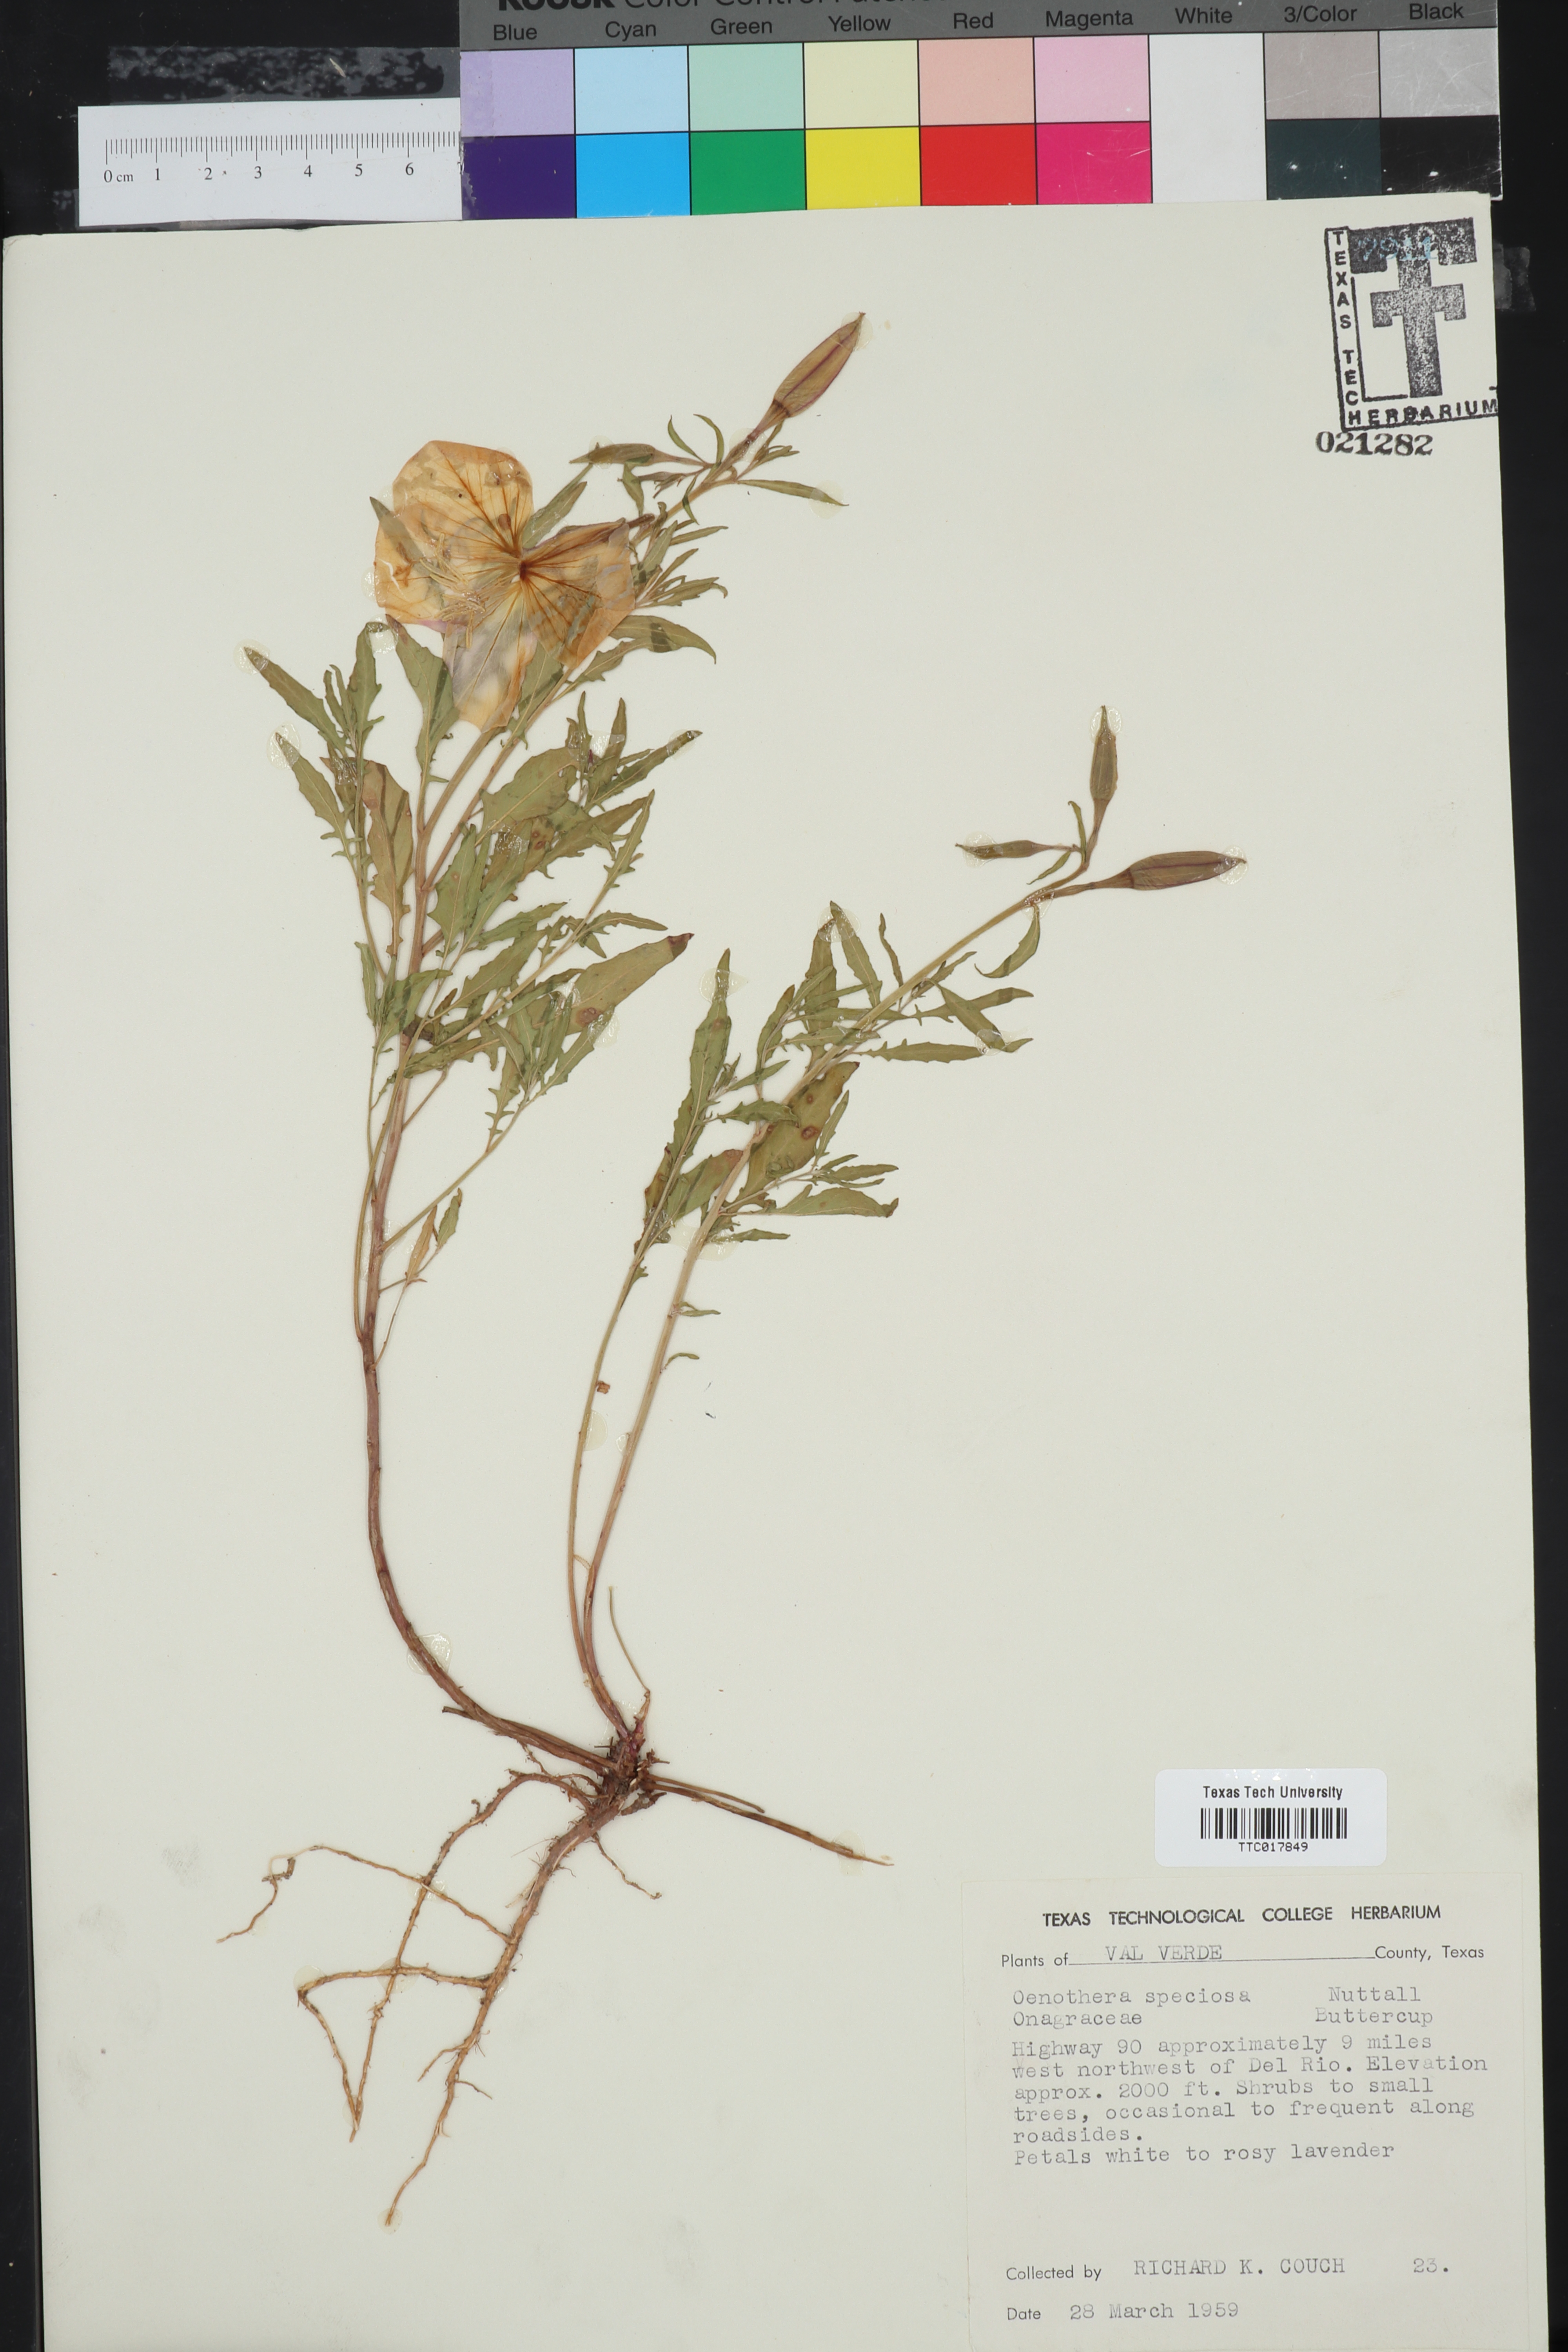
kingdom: Plantae
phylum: Tracheophyta
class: Magnoliopsida
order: Myrtales
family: Onagraceae
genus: Oenothera
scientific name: Oenothera speciosa
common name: White evening-primrose
